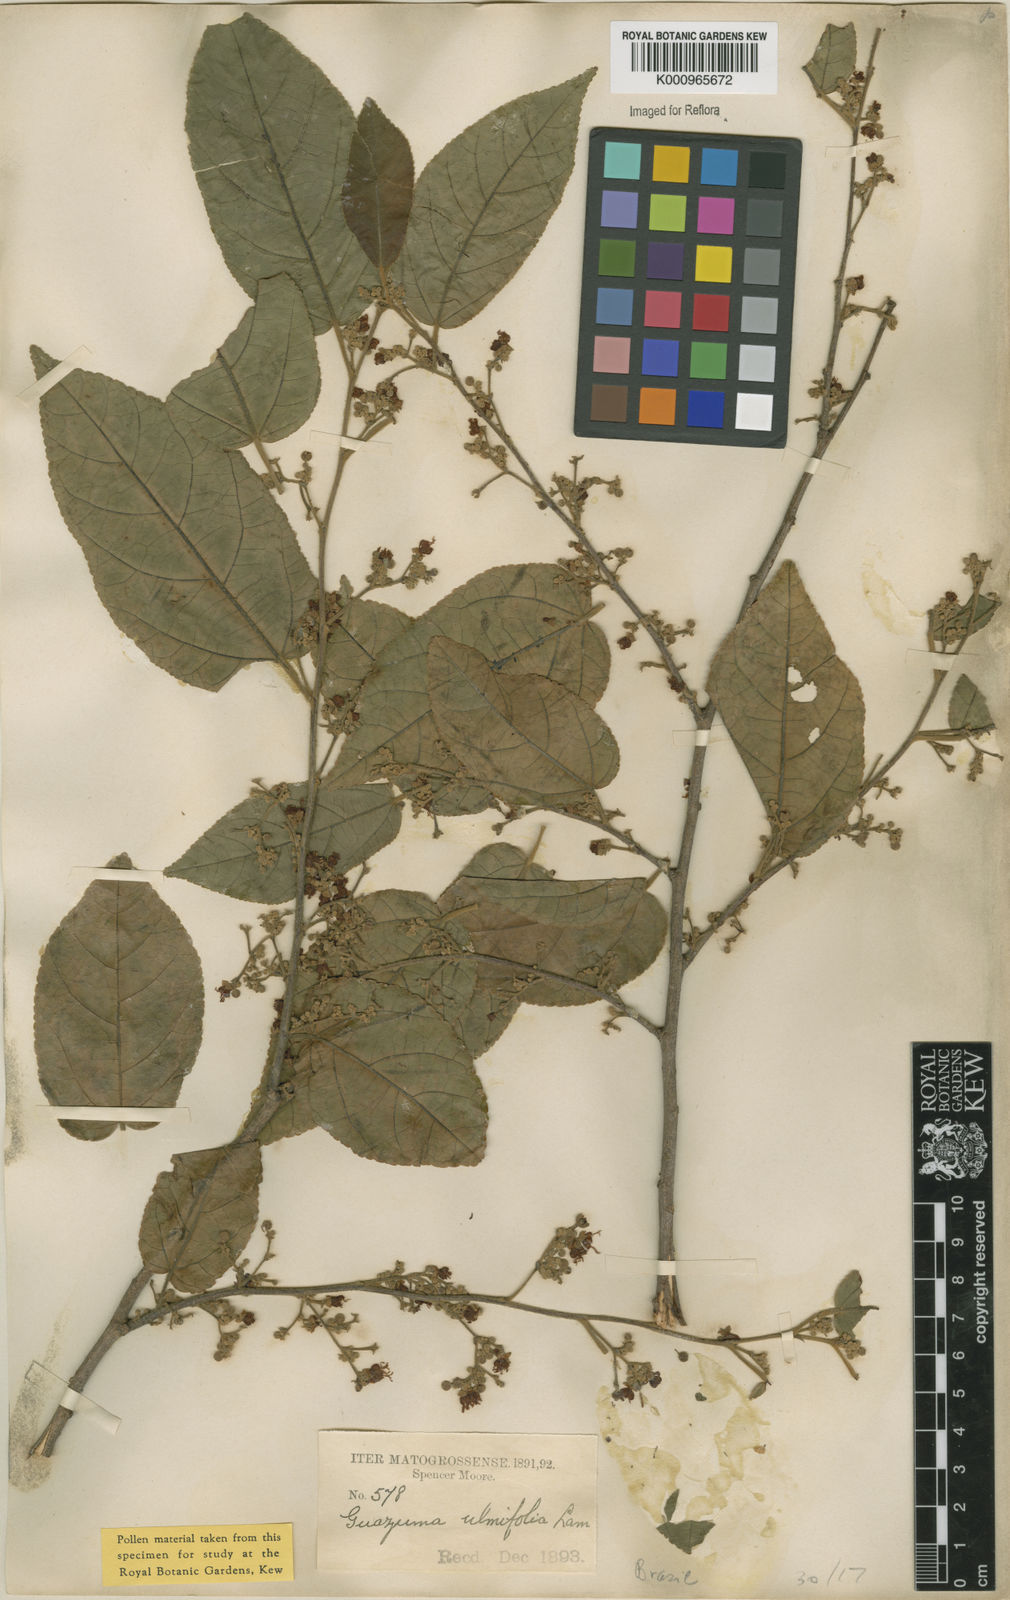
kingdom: Plantae
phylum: Tracheophyta
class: Magnoliopsida
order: Malvales
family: Malvaceae
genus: Guazuma
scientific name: Guazuma ulmifolia
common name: Bastard-cedar
